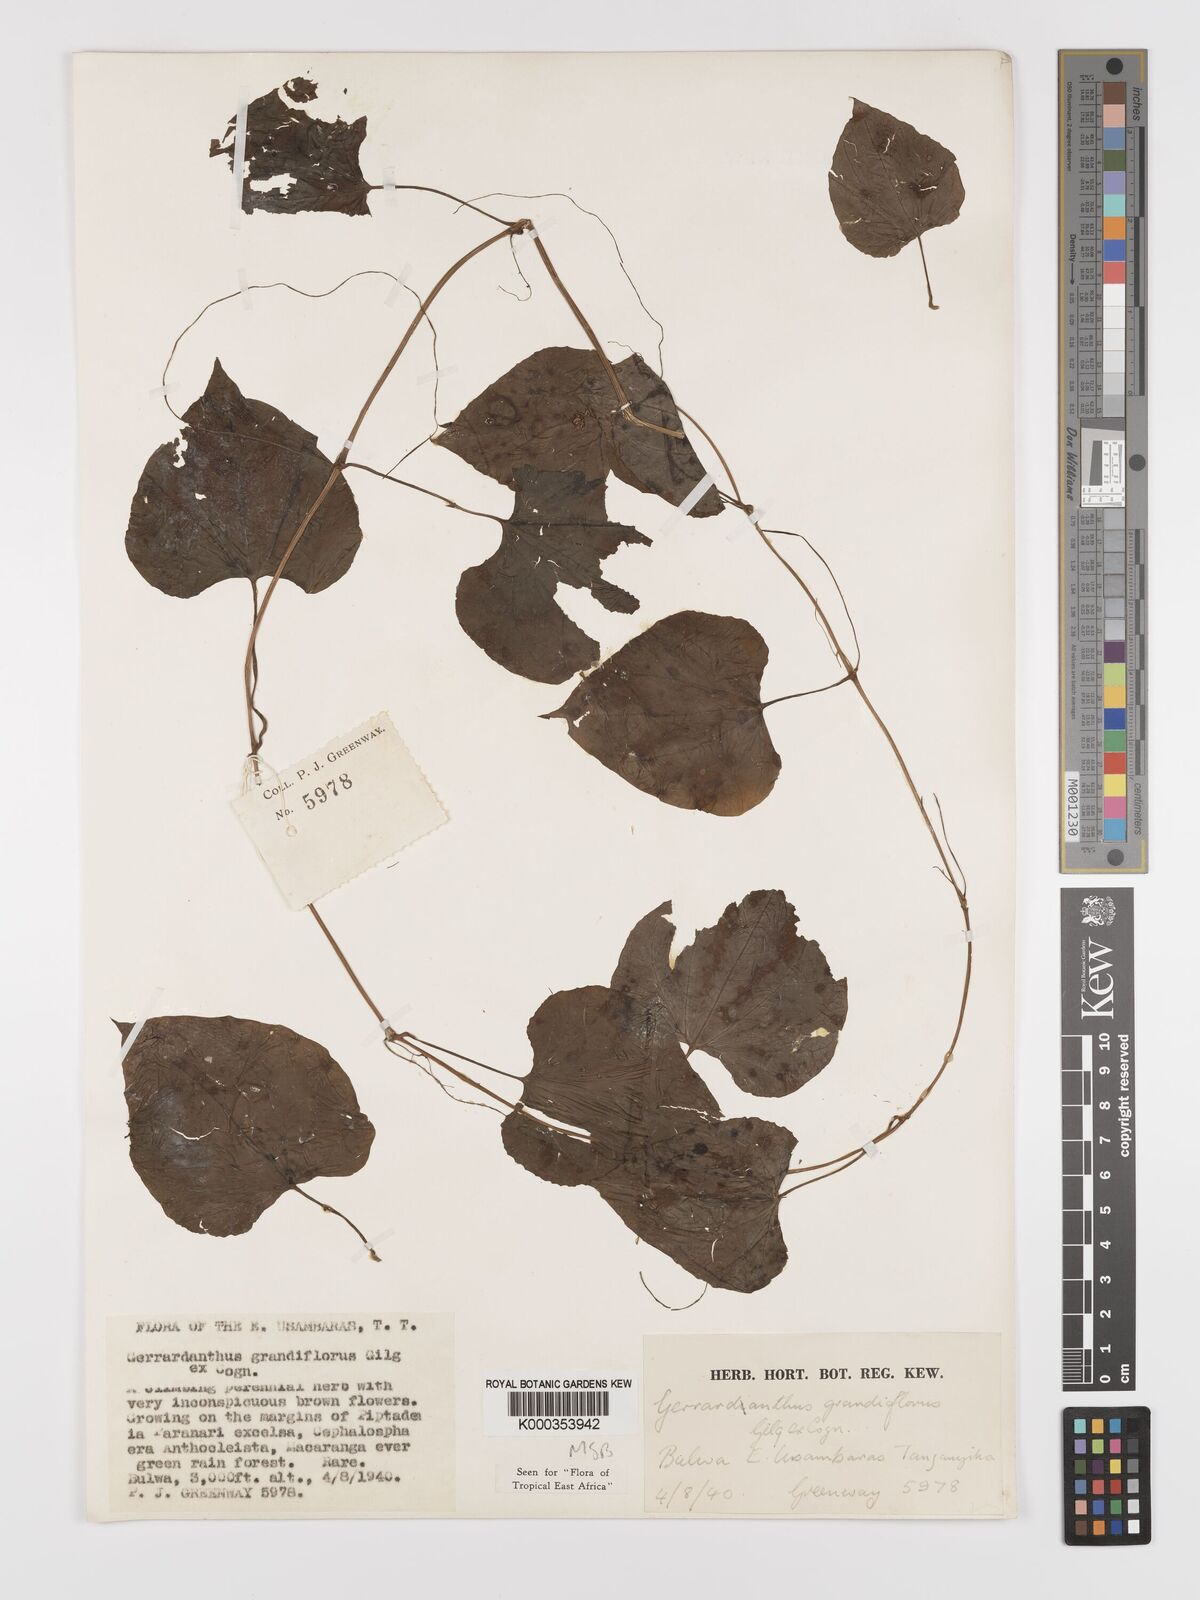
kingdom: Plantae
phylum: Tracheophyta
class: Magnoliopsida
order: Cucurbitales
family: Cucurbitaceae
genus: Gerrardanthus
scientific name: Gerrardanthus
